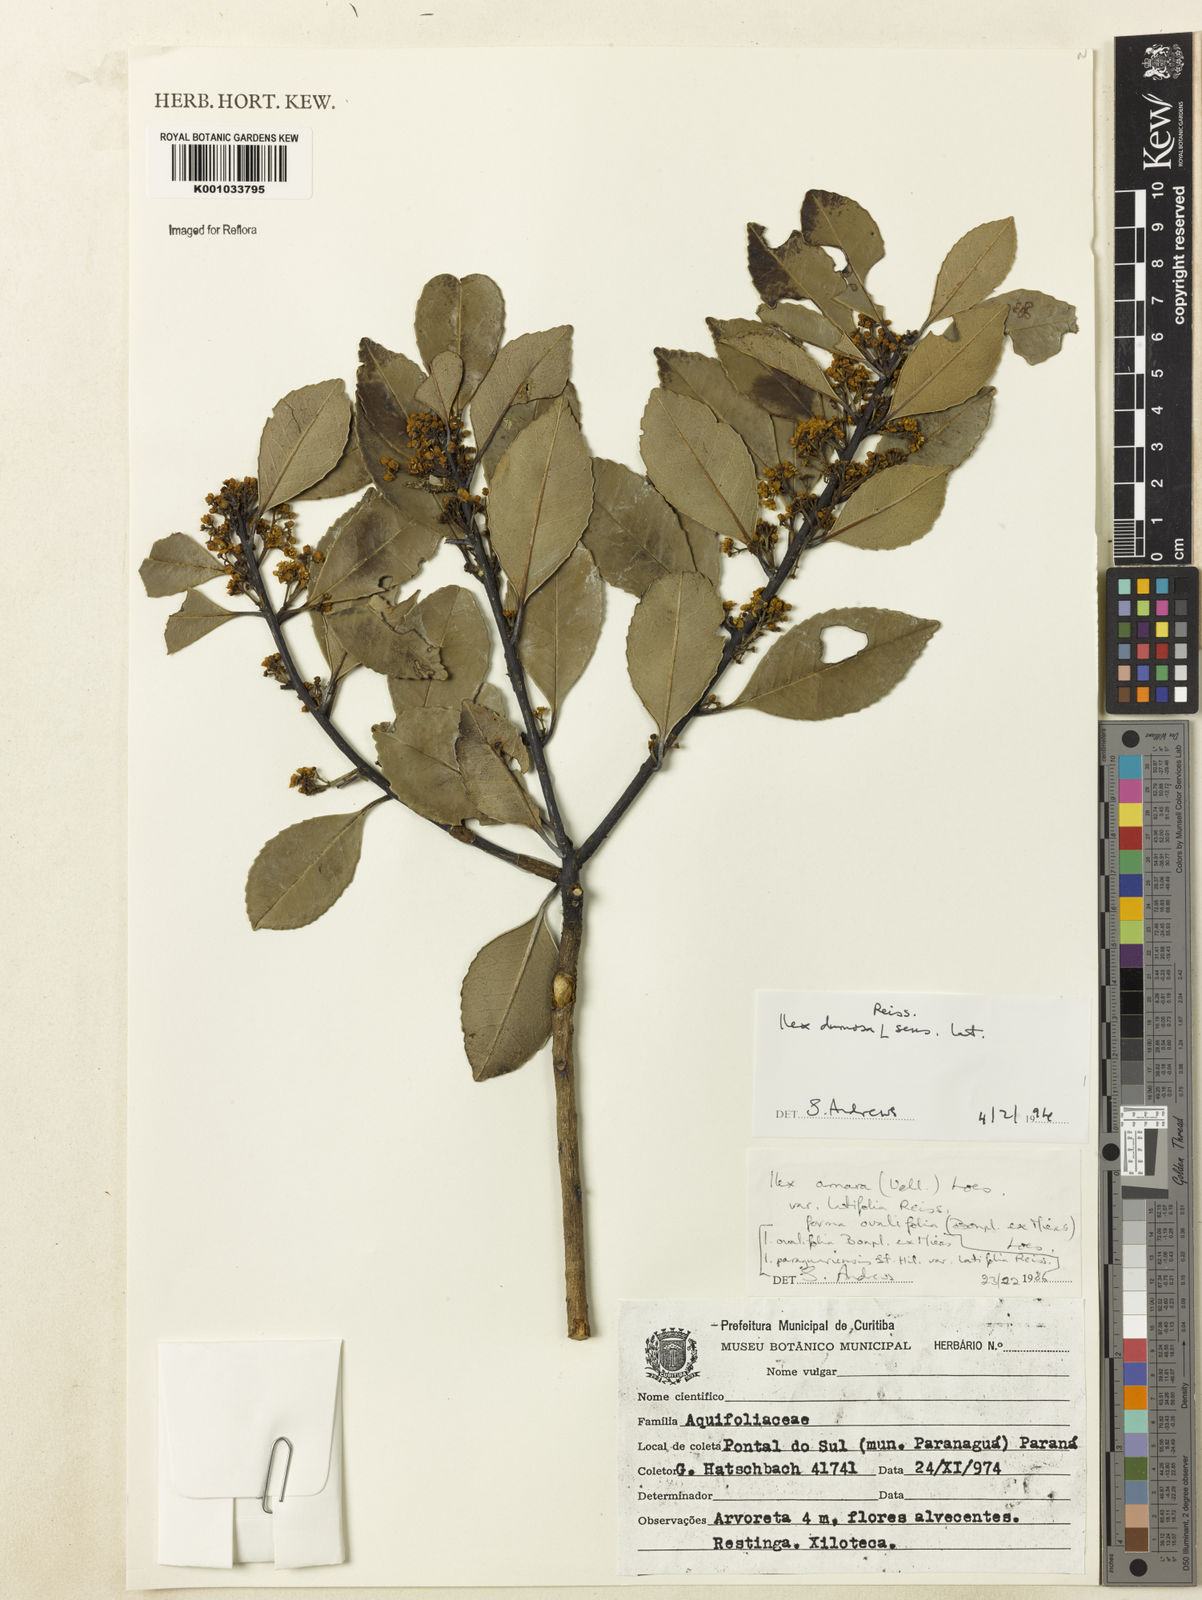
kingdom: Plantae
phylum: Tracheophyta
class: Magnoliopsida
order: Aquifoliales
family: Aquifoliaceae
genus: Ilex
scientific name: Ilex dumosa
